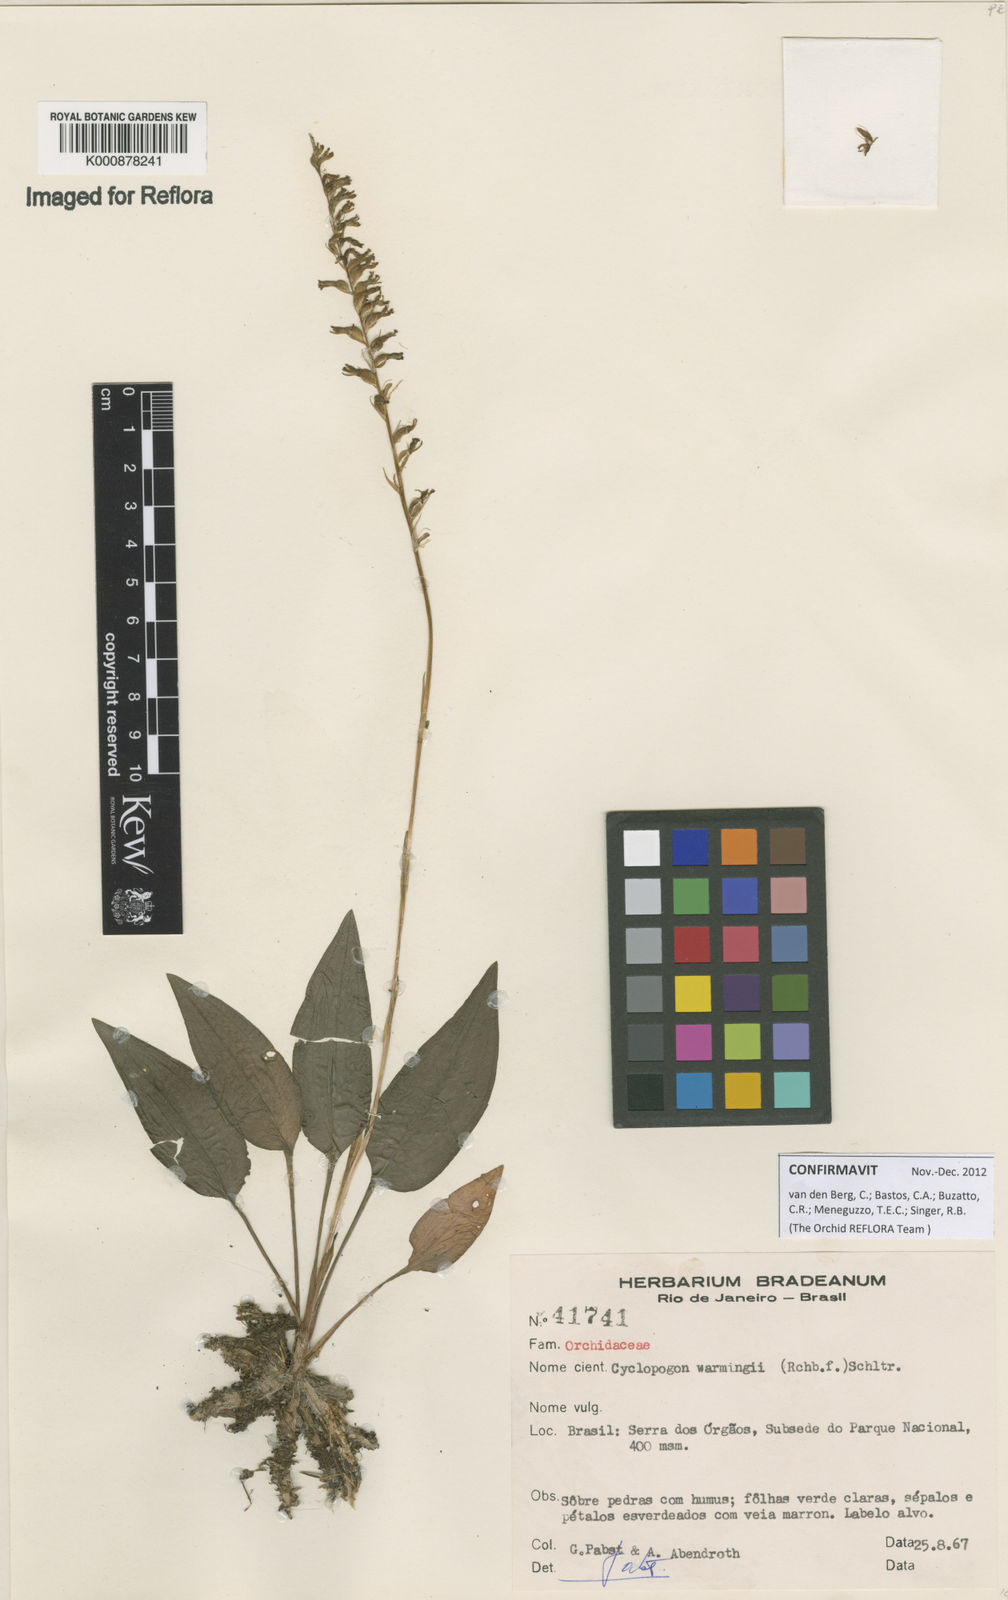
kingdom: Plantae
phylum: Tracheophyta
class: Liliopsida
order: Asparagales
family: Orchidaceae
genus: Cyclopogon
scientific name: Cyclopogon warmingii
